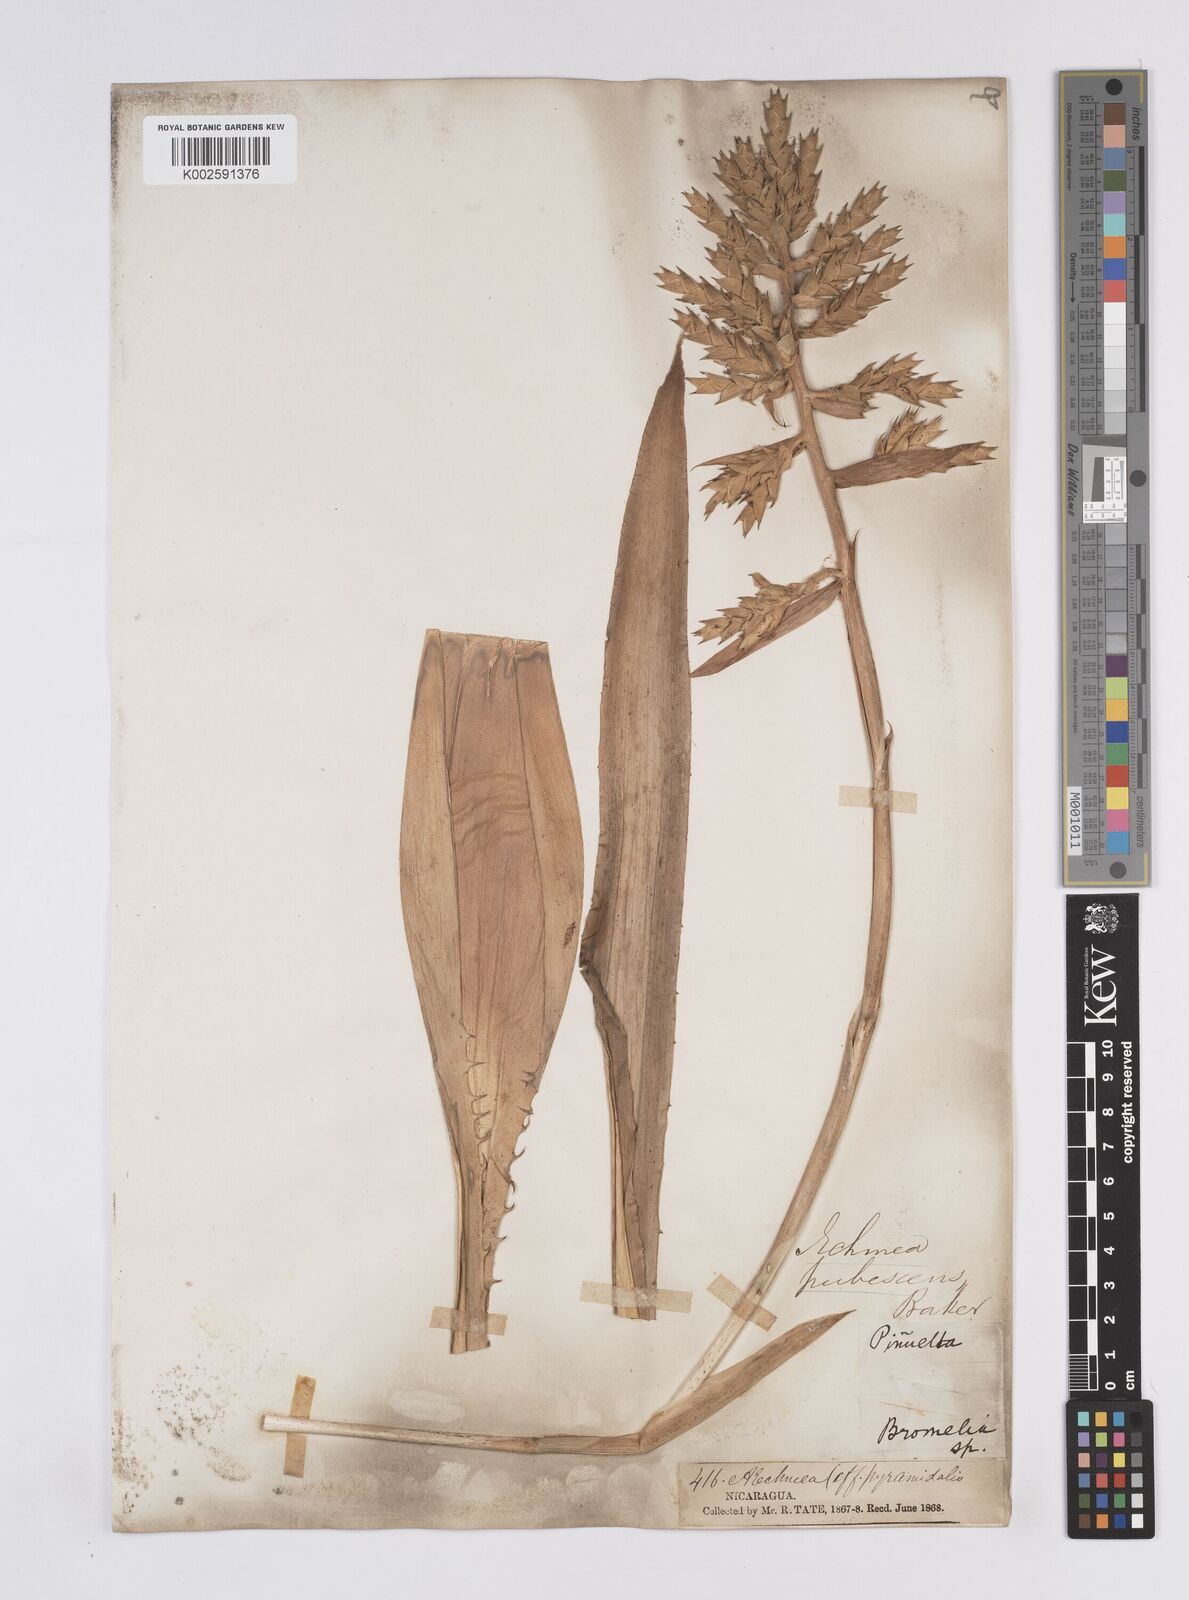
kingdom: Plantae
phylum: Tracheophyta
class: Liliopsida
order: Poales
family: Bromeliaceae
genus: Aechmea
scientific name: Aechmea pubescens
